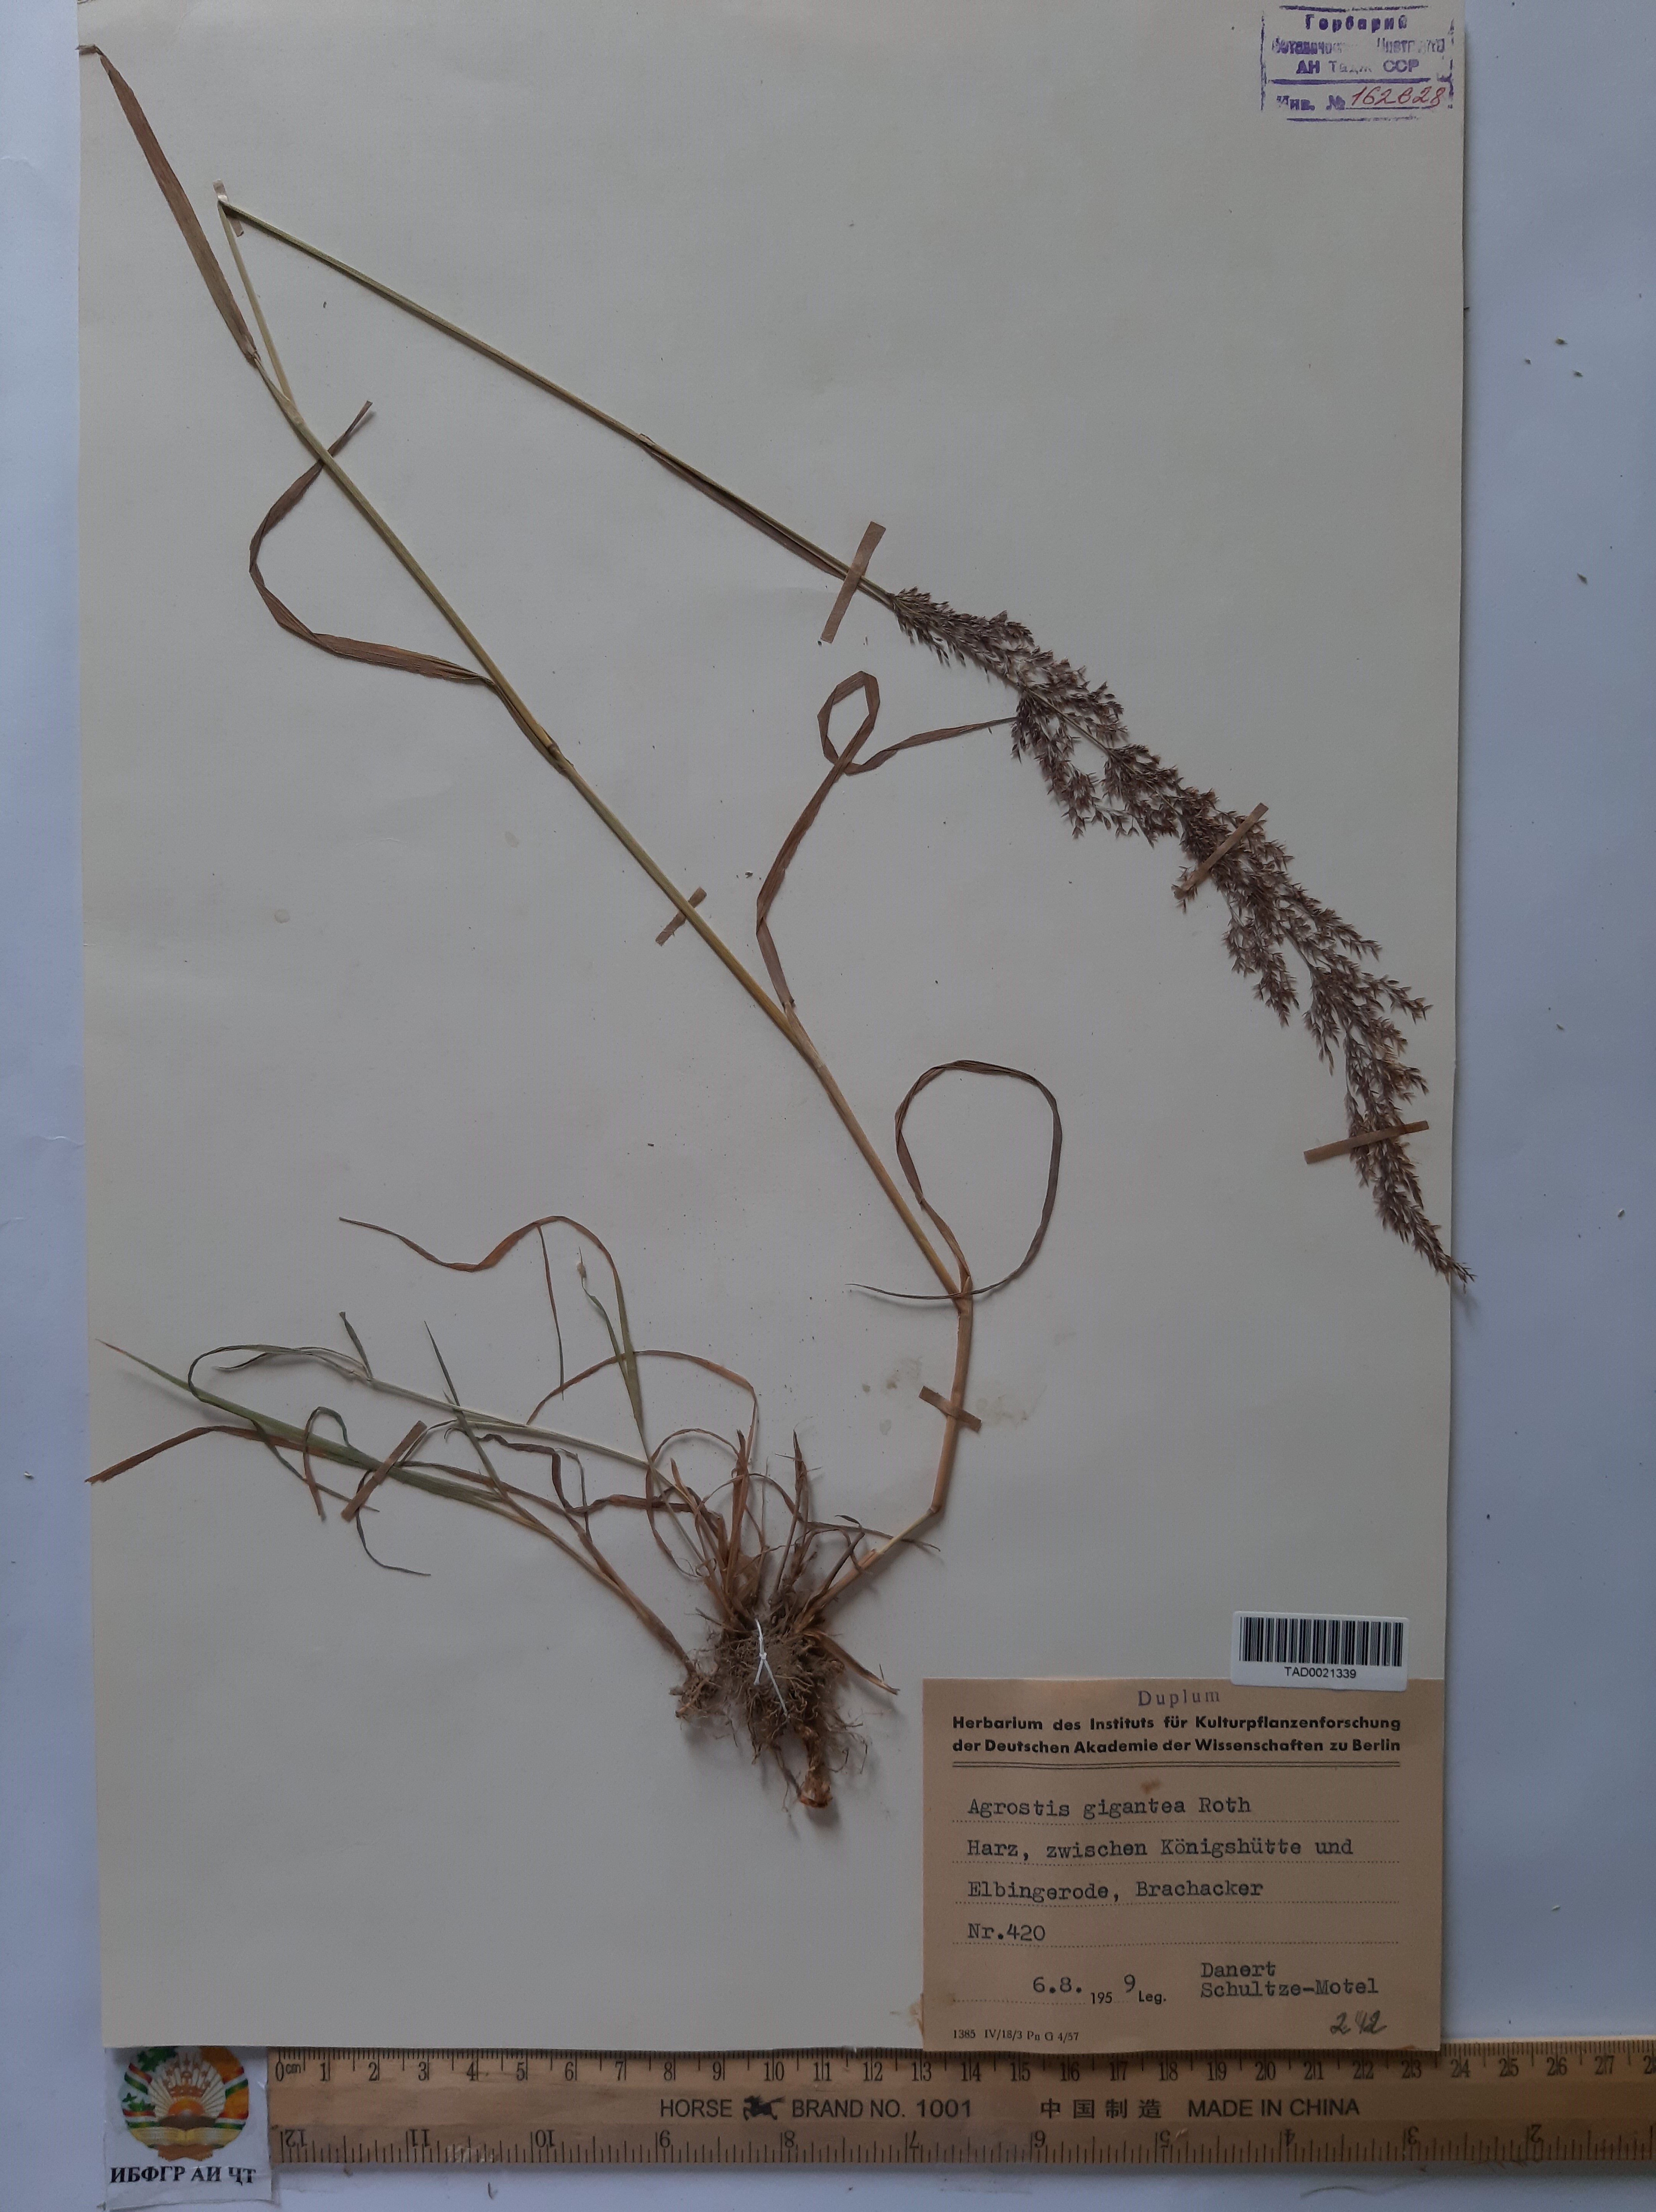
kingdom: Plantae
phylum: Tracheophyta
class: Liliopsida
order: Poales
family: Poaceae
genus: Agrostis
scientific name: Agrostis gigantea
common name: Black bent
